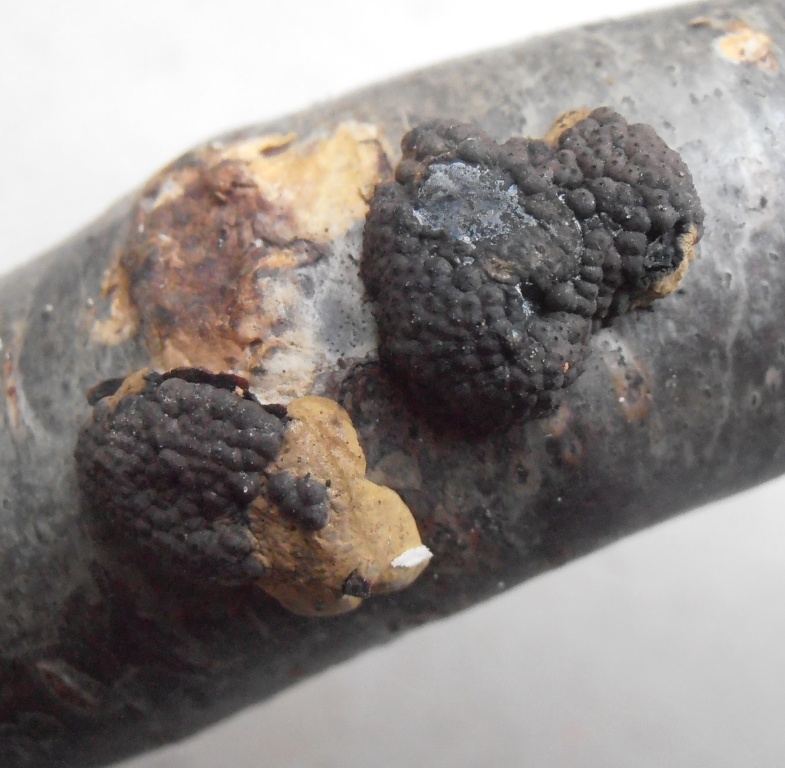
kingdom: Fungi
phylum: Ascomycota
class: Sordariomycetes
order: Xylariales
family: Hypoxylaceae
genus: Jackrogersella
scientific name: Jackrogersella multiformis
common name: foranderlig kulbær
